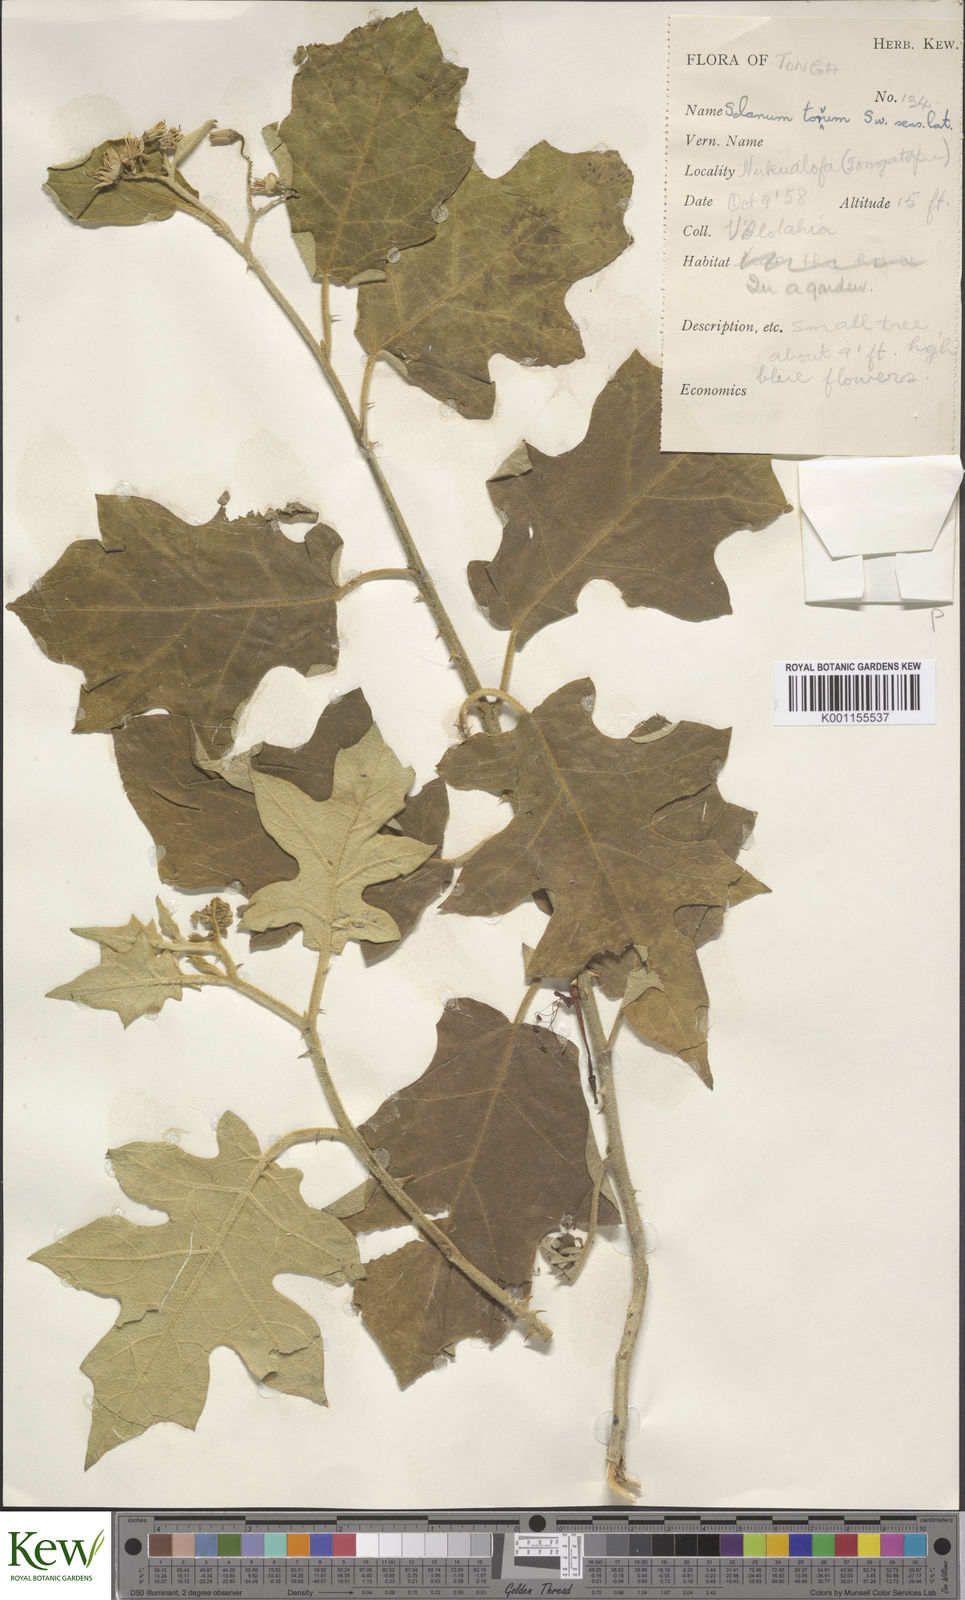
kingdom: Plantae
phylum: Tracheophyta
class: Magnoliopsida
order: Solanales
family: Solanaceae
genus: Solanum
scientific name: Solanum torvum
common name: Turkey berry
